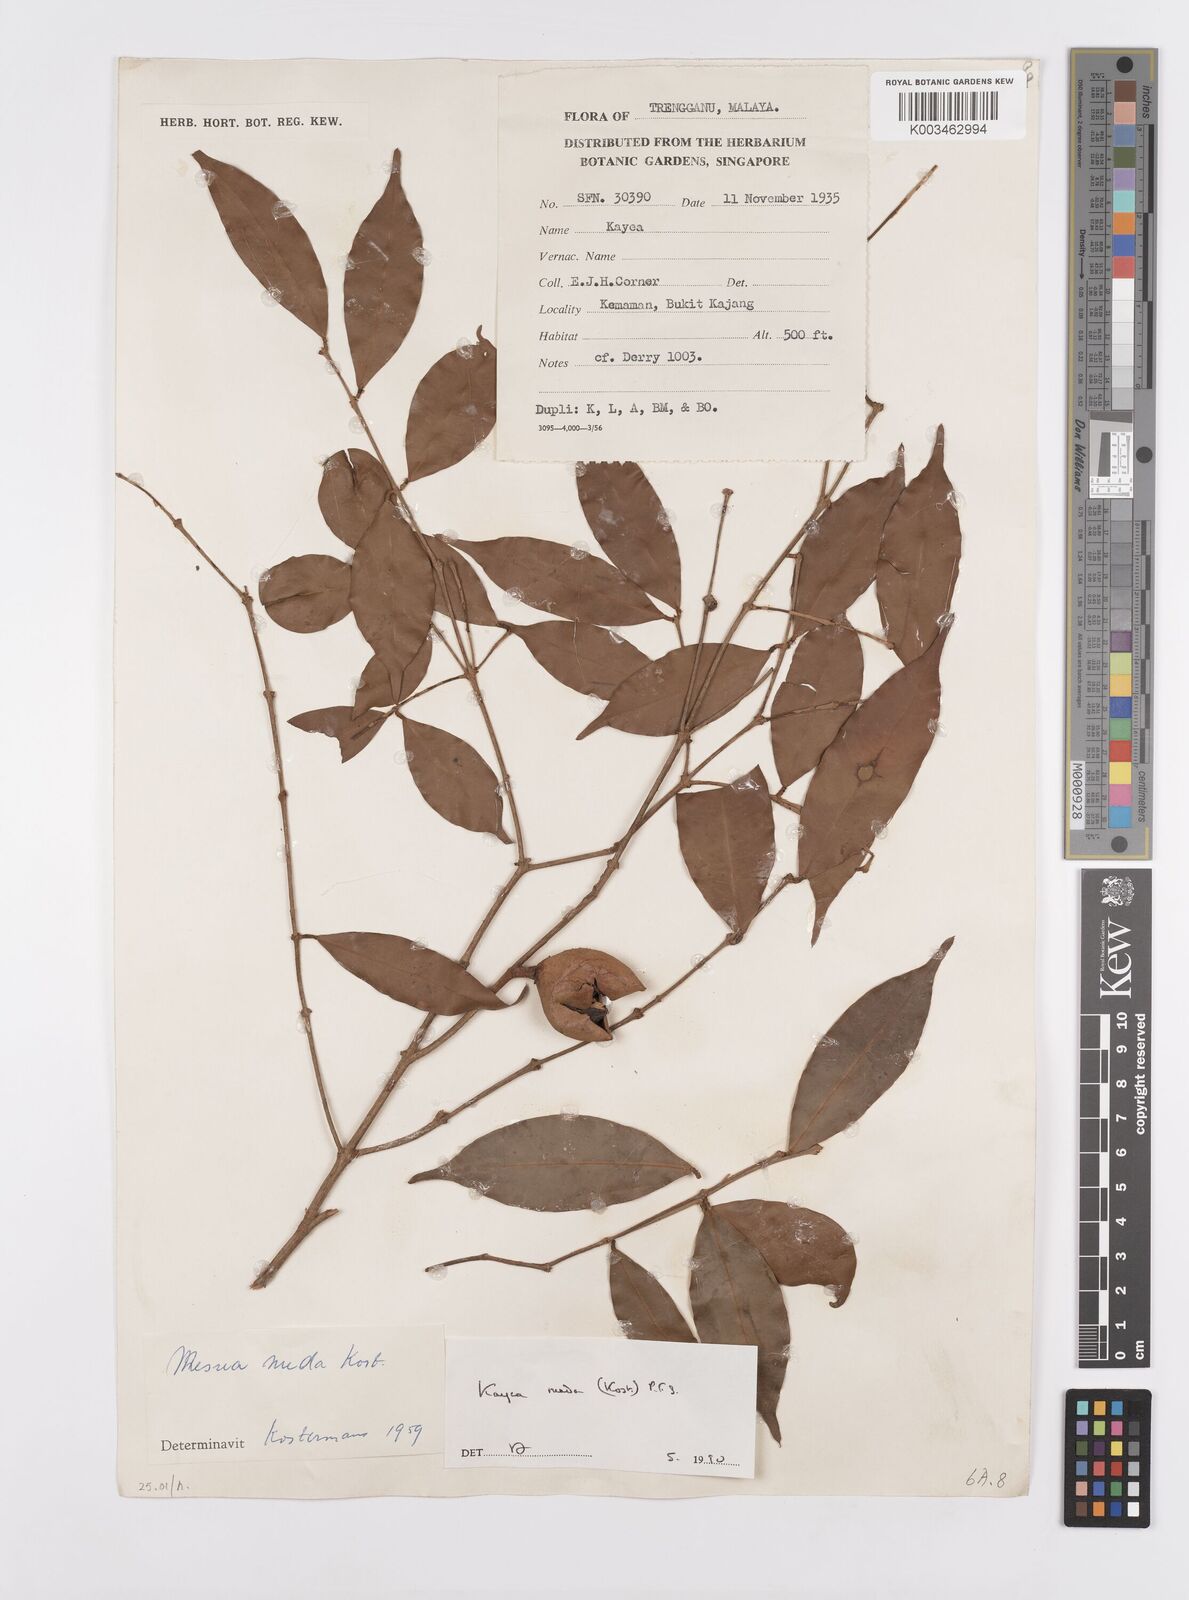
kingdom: Plantae
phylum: Tracheophyta
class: Magnoliopsida
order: Malpighiales
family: Calophyllaceae
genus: Kayea
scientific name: Kayea
